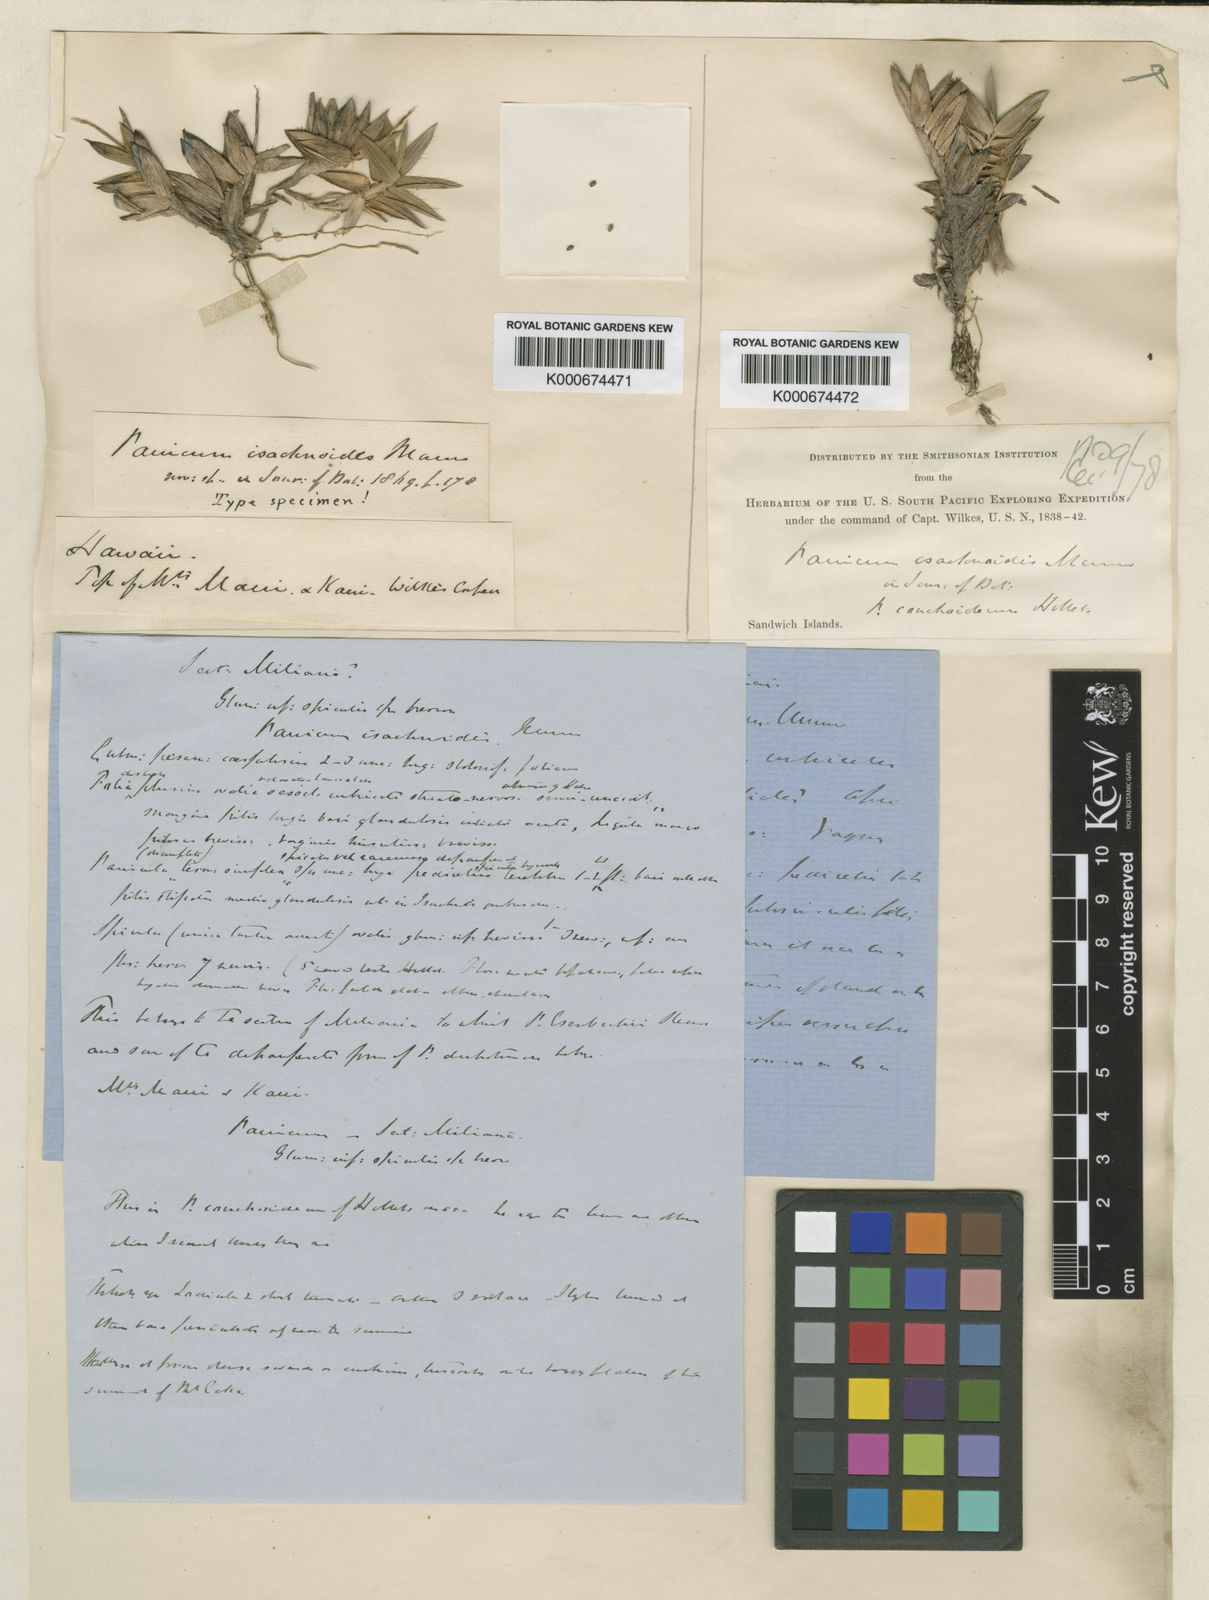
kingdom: Plantae
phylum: Tracheophyta
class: Liliopsida
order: Poales
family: Poaceae
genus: Panicum
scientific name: Panicum
